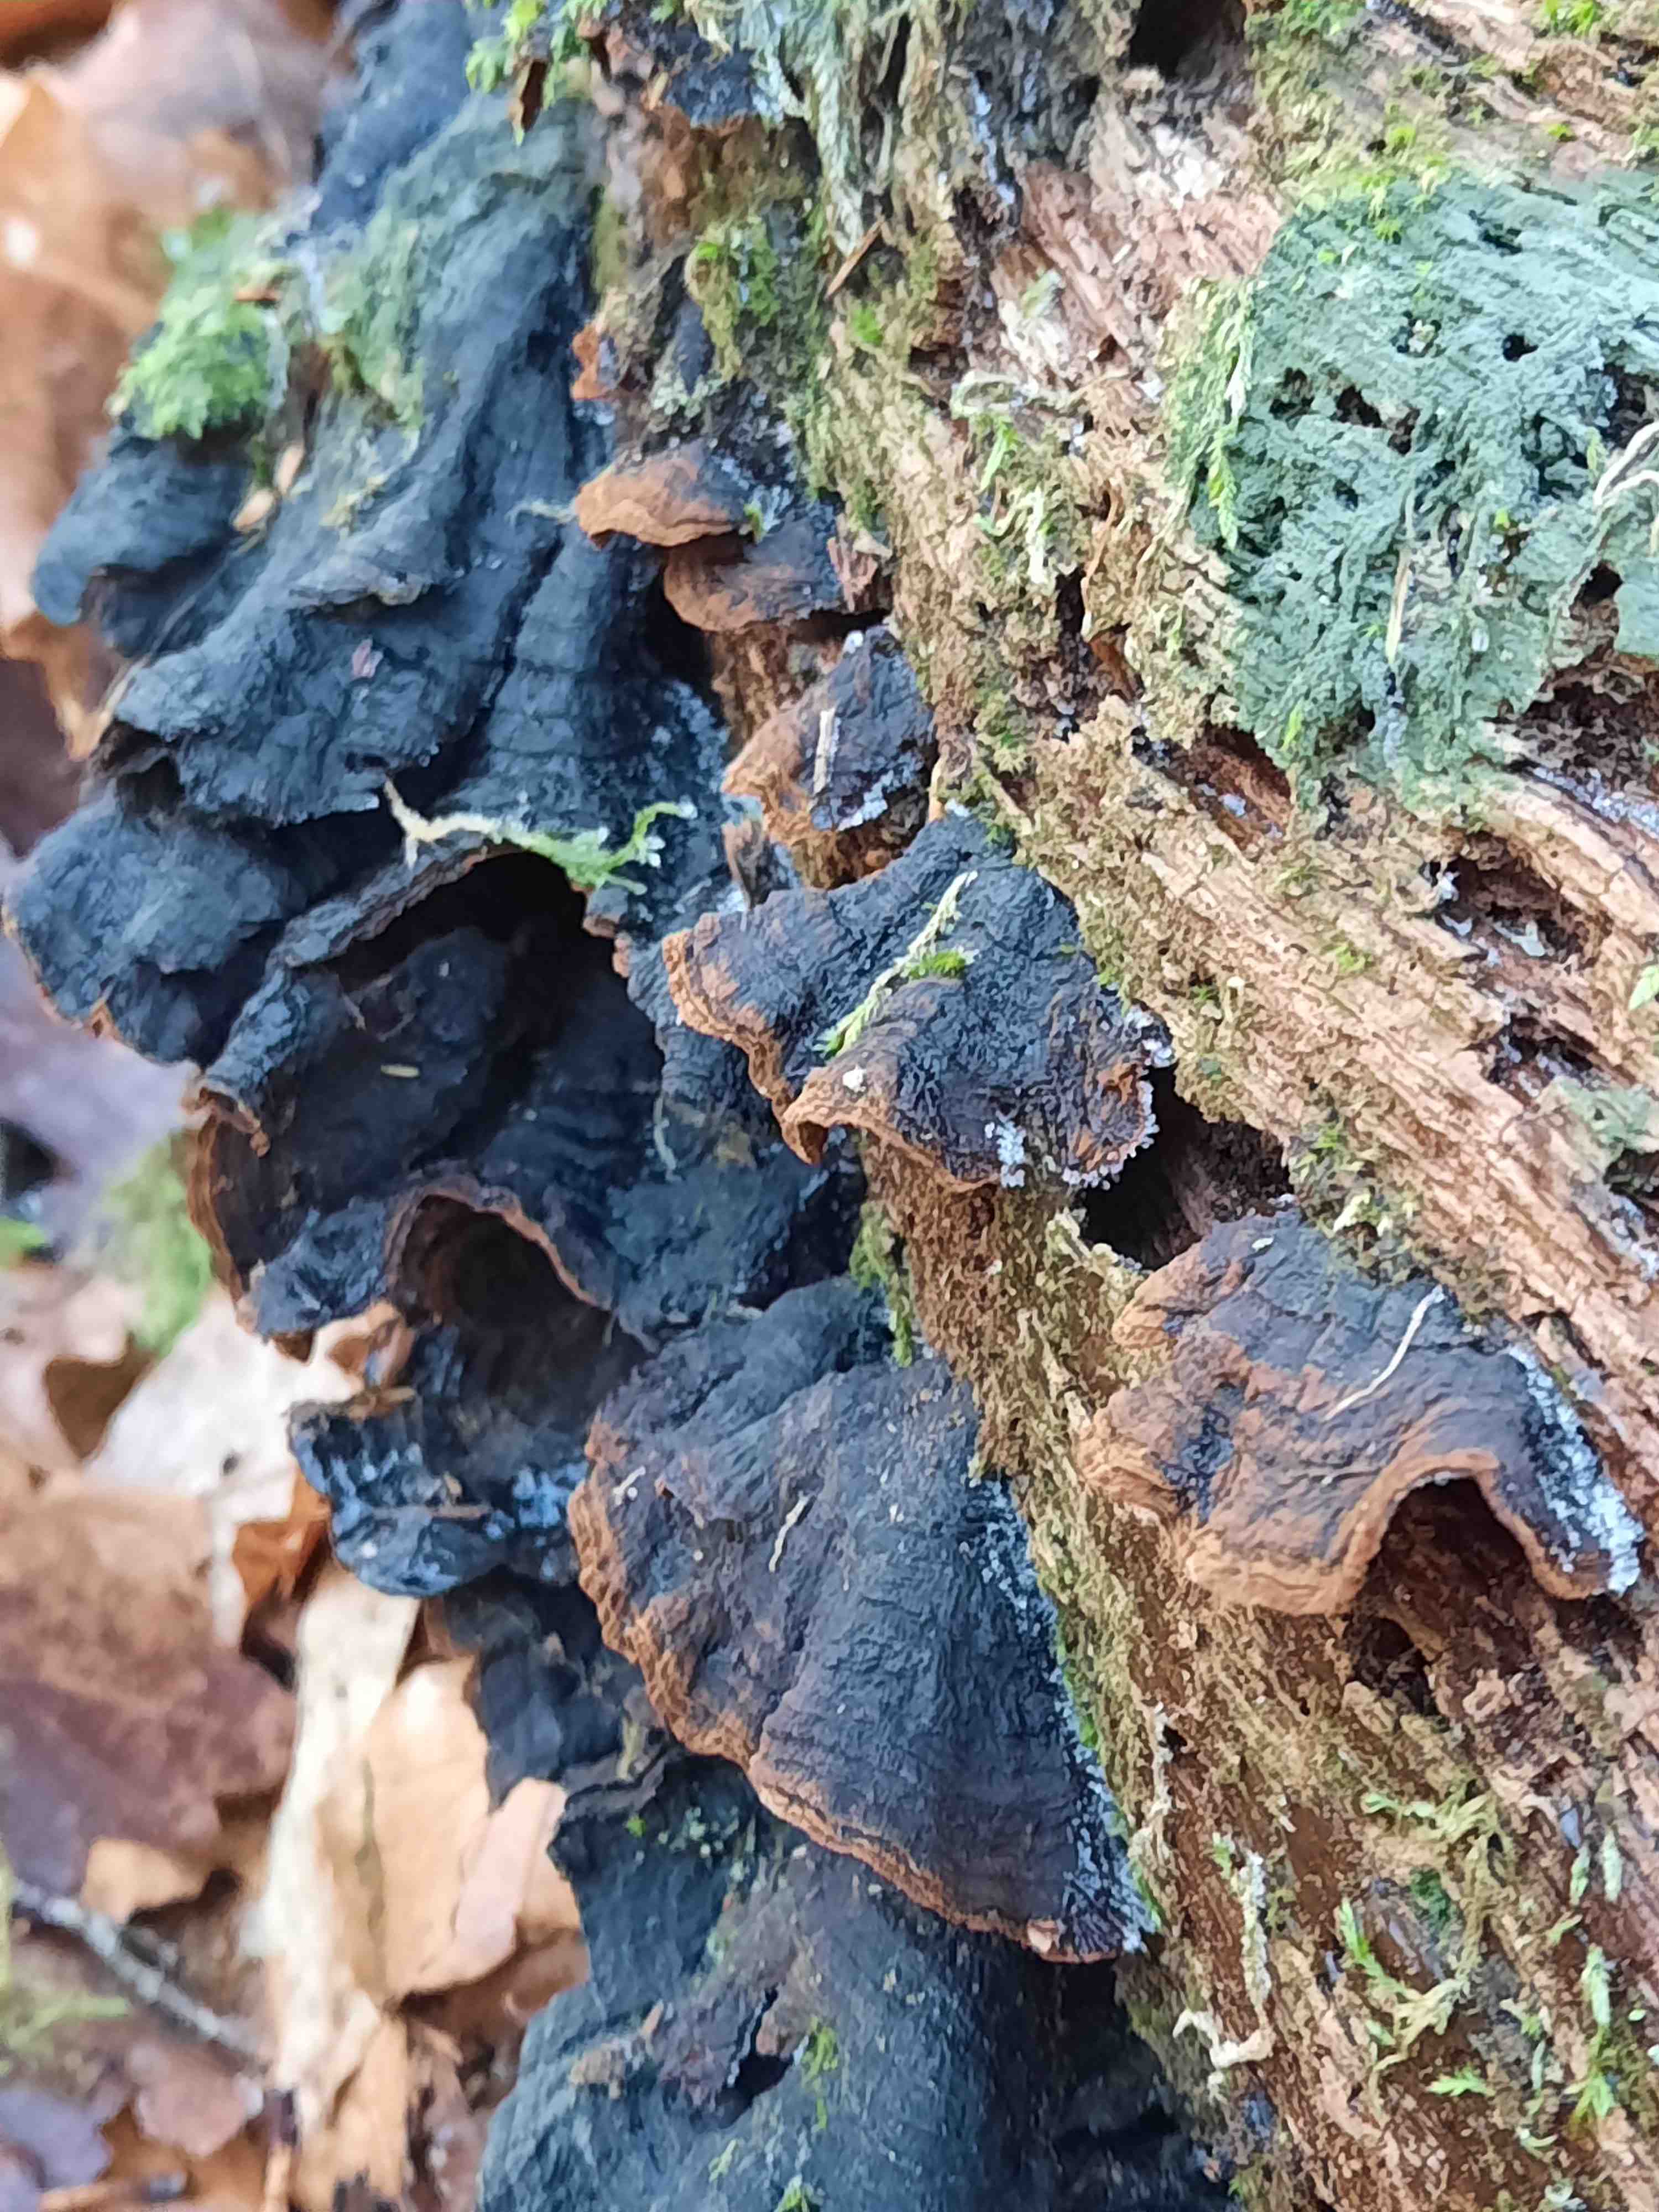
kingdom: Fungi
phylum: Basidiomycota
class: Agaricomycetes
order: Hymenochaetales
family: Hymenochaetaceae
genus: Hymenochaete
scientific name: Hymenochaete rubiginosa
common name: stiv ruslædersvamp
